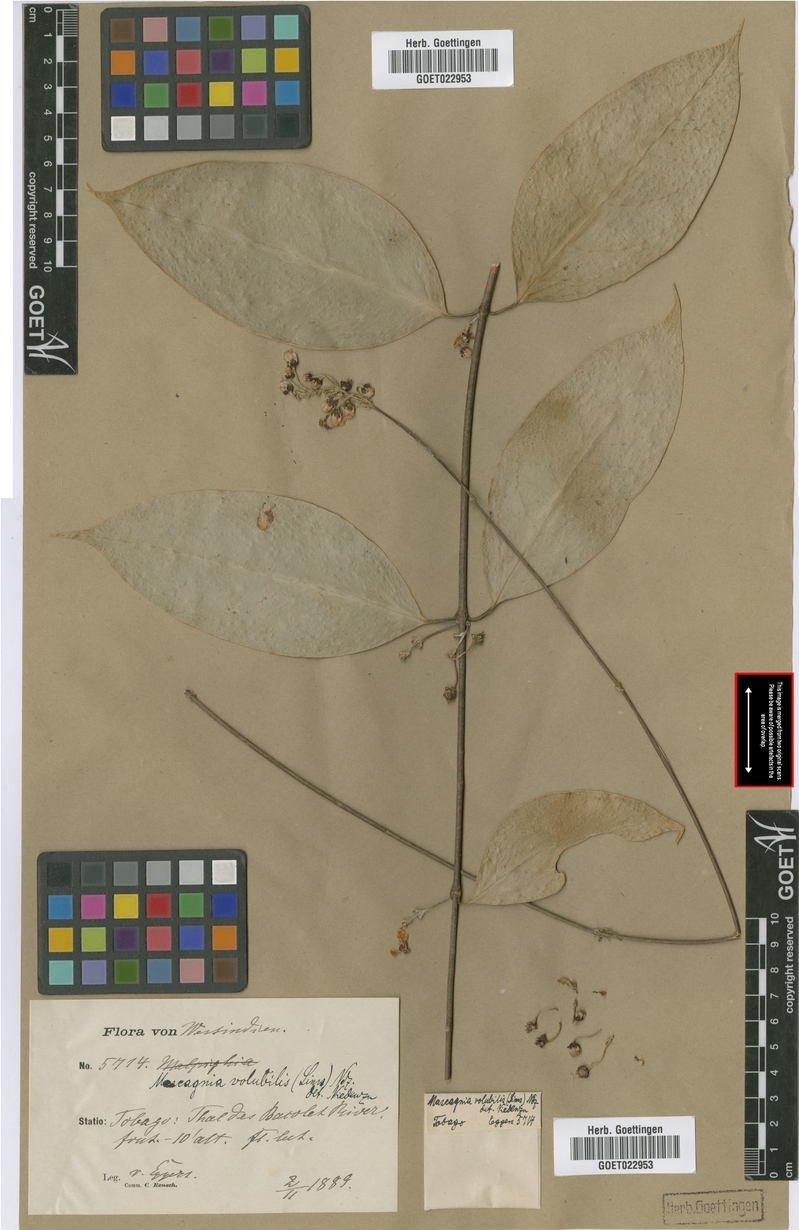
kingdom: Plantae
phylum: Tracheophyta
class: Magnoliopsida
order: Malpighiales
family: Malpighiaceae
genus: Carolus
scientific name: Carolus sinemariensis
